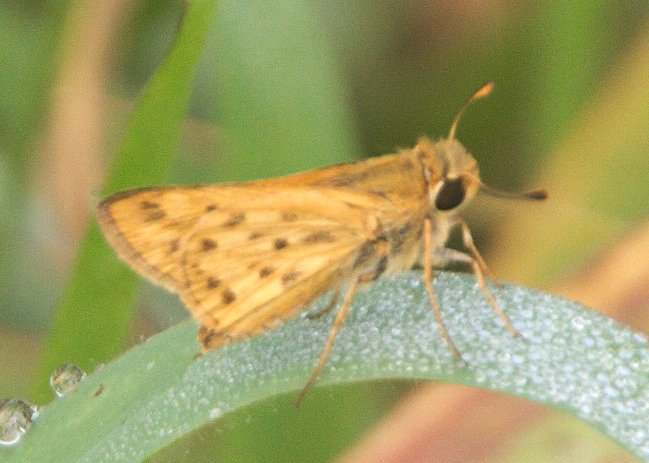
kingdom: Animalia
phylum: Arthropoda
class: Insecta
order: Lepidoptera
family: Hesperiidae
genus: Hylephila
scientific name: Hylephila phyleus
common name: Fiery Skipper
